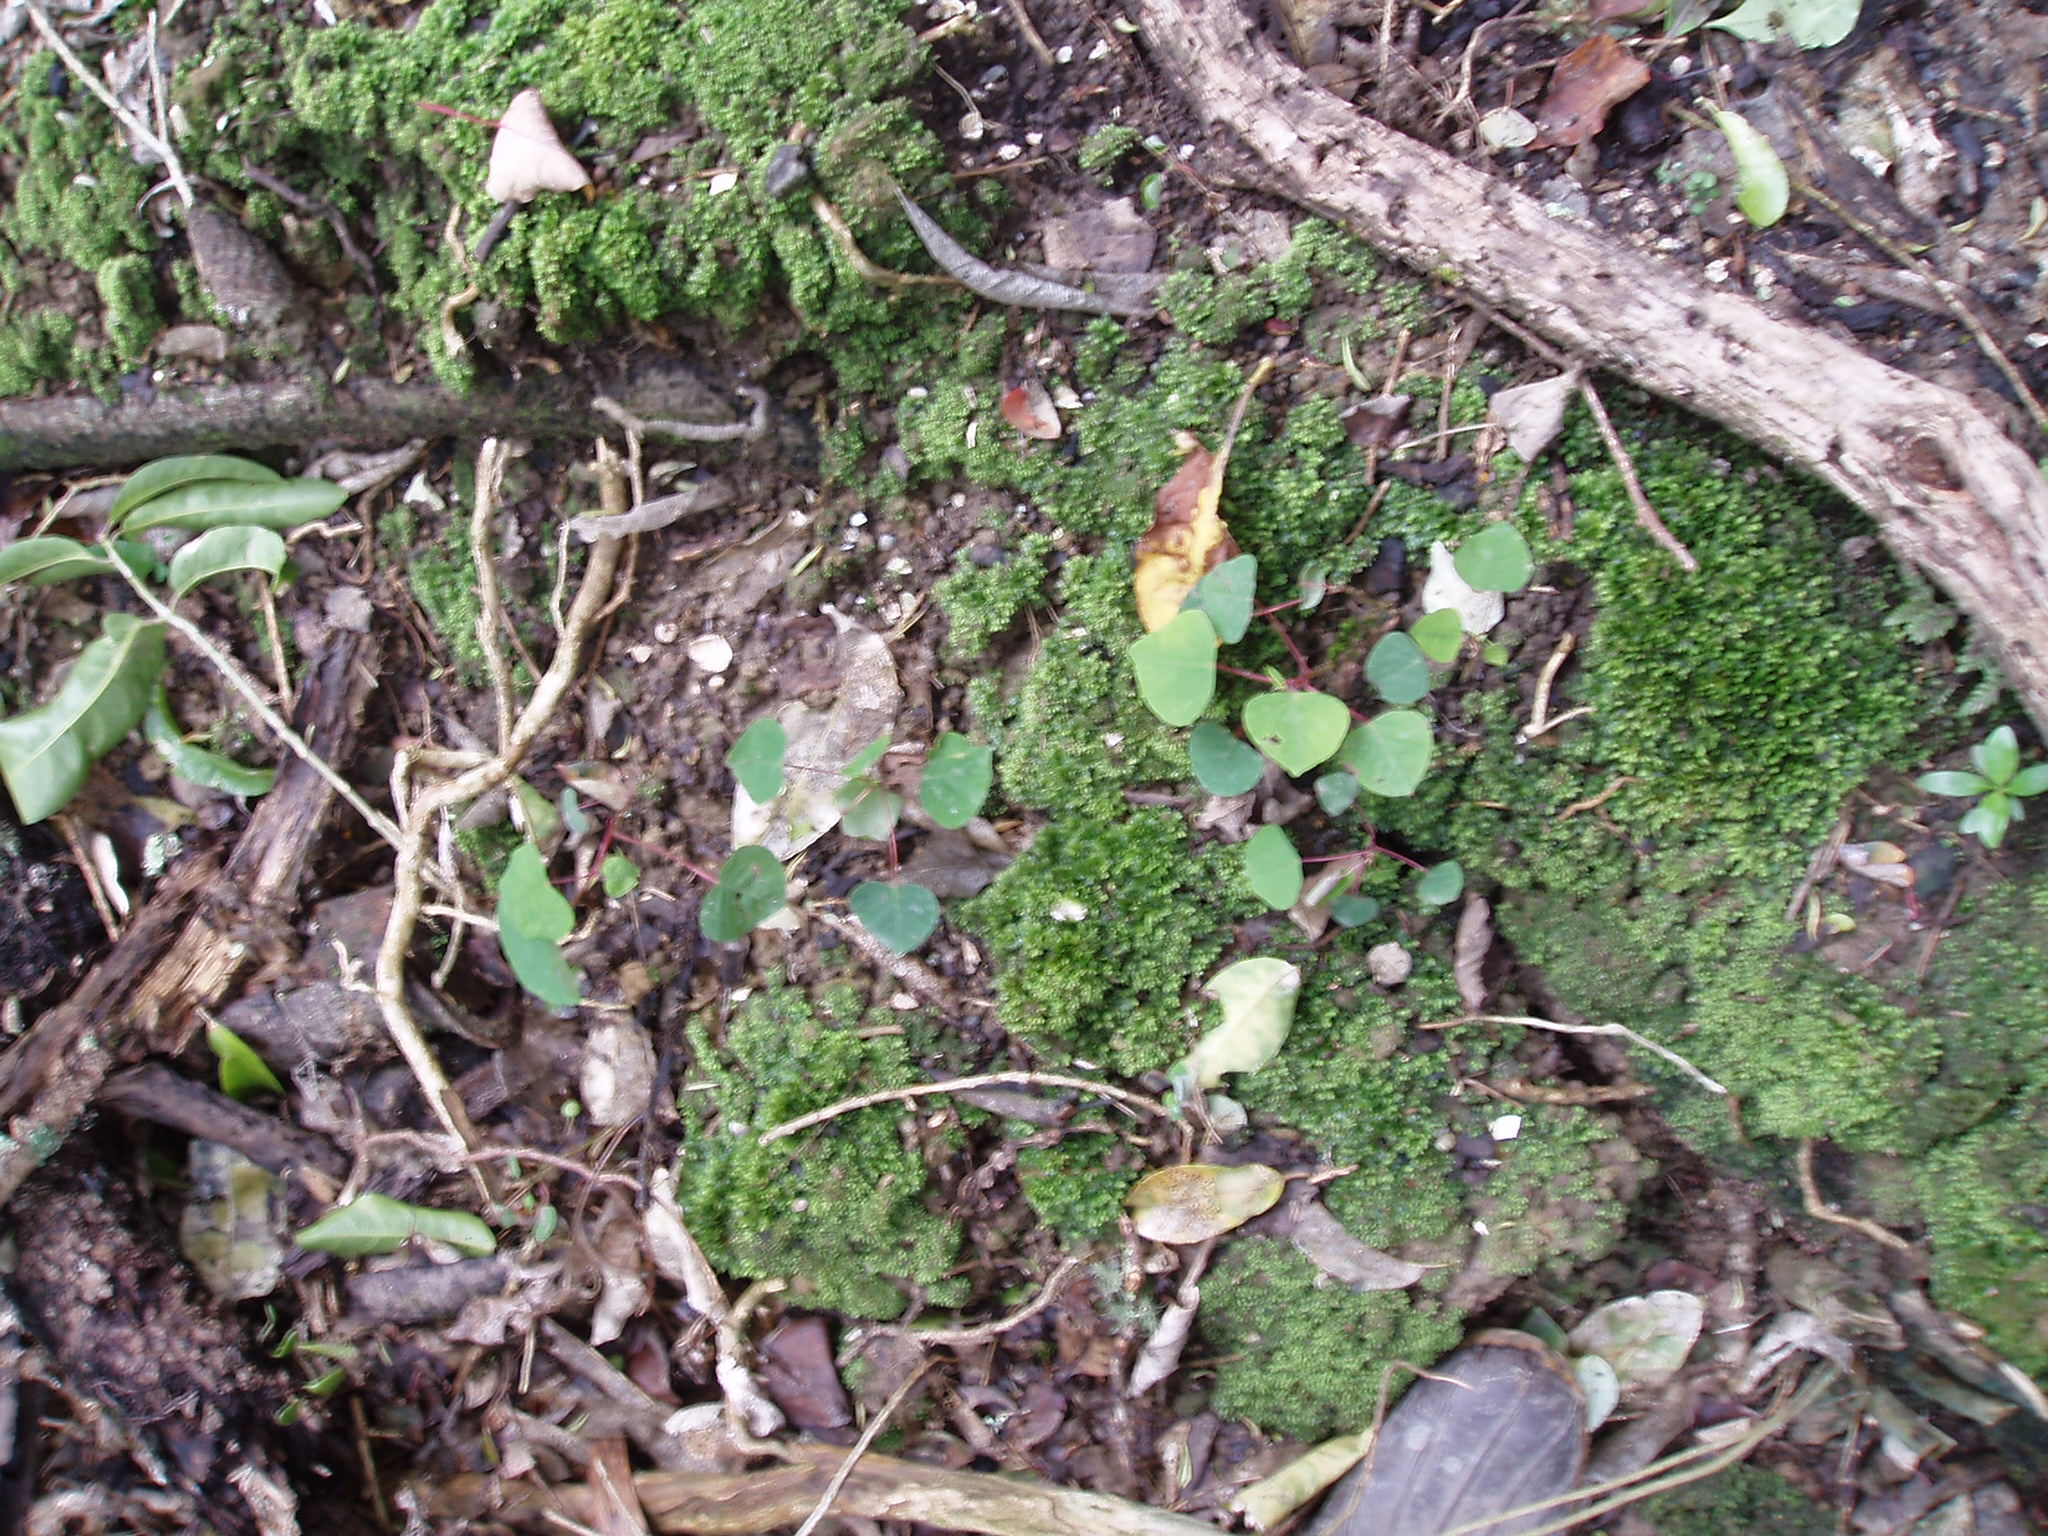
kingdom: Plantae
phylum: Tracheophyta
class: Magnoliopsida
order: Malpighiales
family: Euphorbiaceae
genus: Homalanthus
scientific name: Homalanthus populifolius
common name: Queensland poplar
